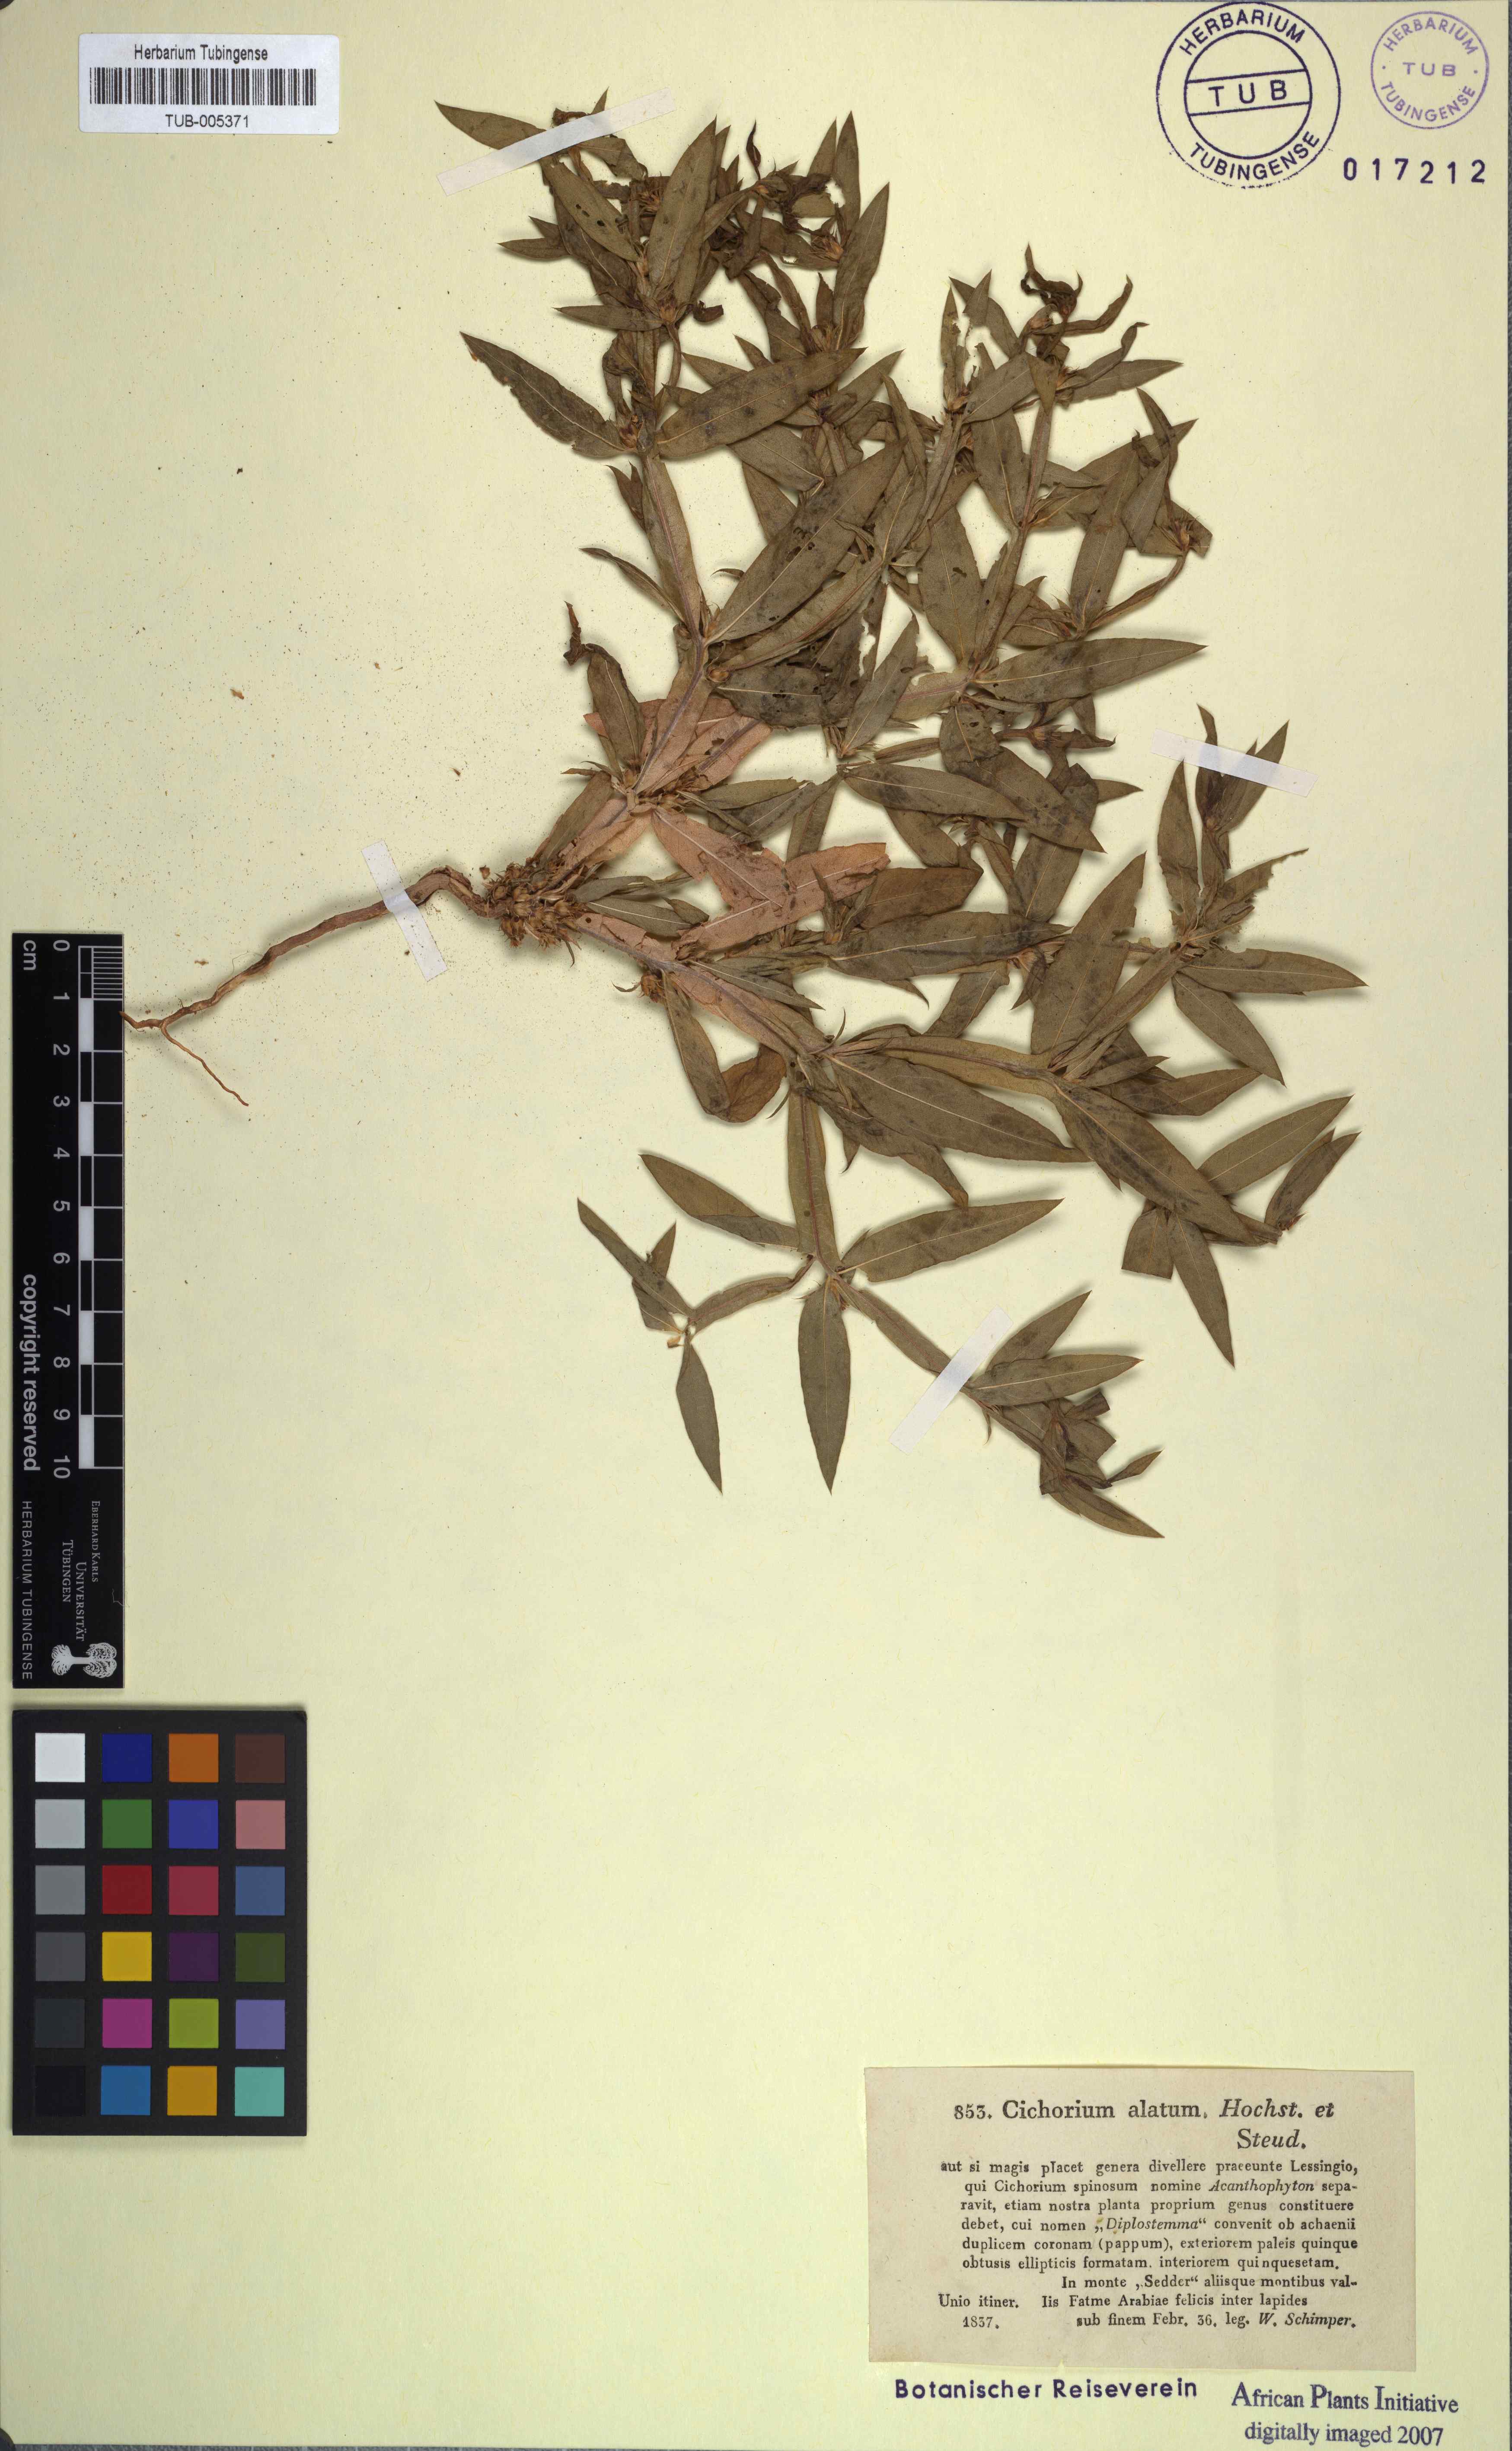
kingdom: Plantae
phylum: Tracheophyta
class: Magnoliopsida
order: Asterales
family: Asteraceae
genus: Geigeria
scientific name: Geigeria alata
